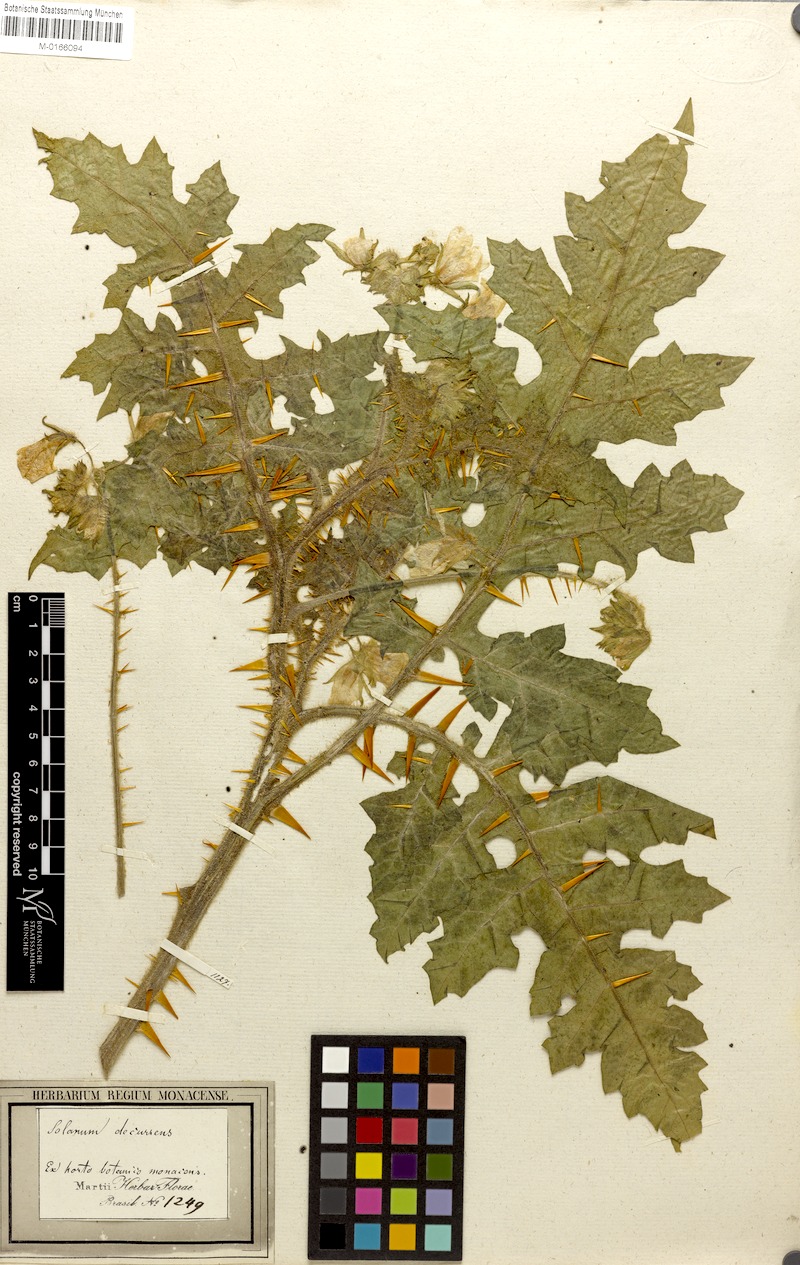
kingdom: Plantae
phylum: Tracheophyta
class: Magnoliopsida
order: Solanales
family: Solanaceae
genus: Solanum
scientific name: Solanum sisymbriifolium
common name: Red buffalo-bur
